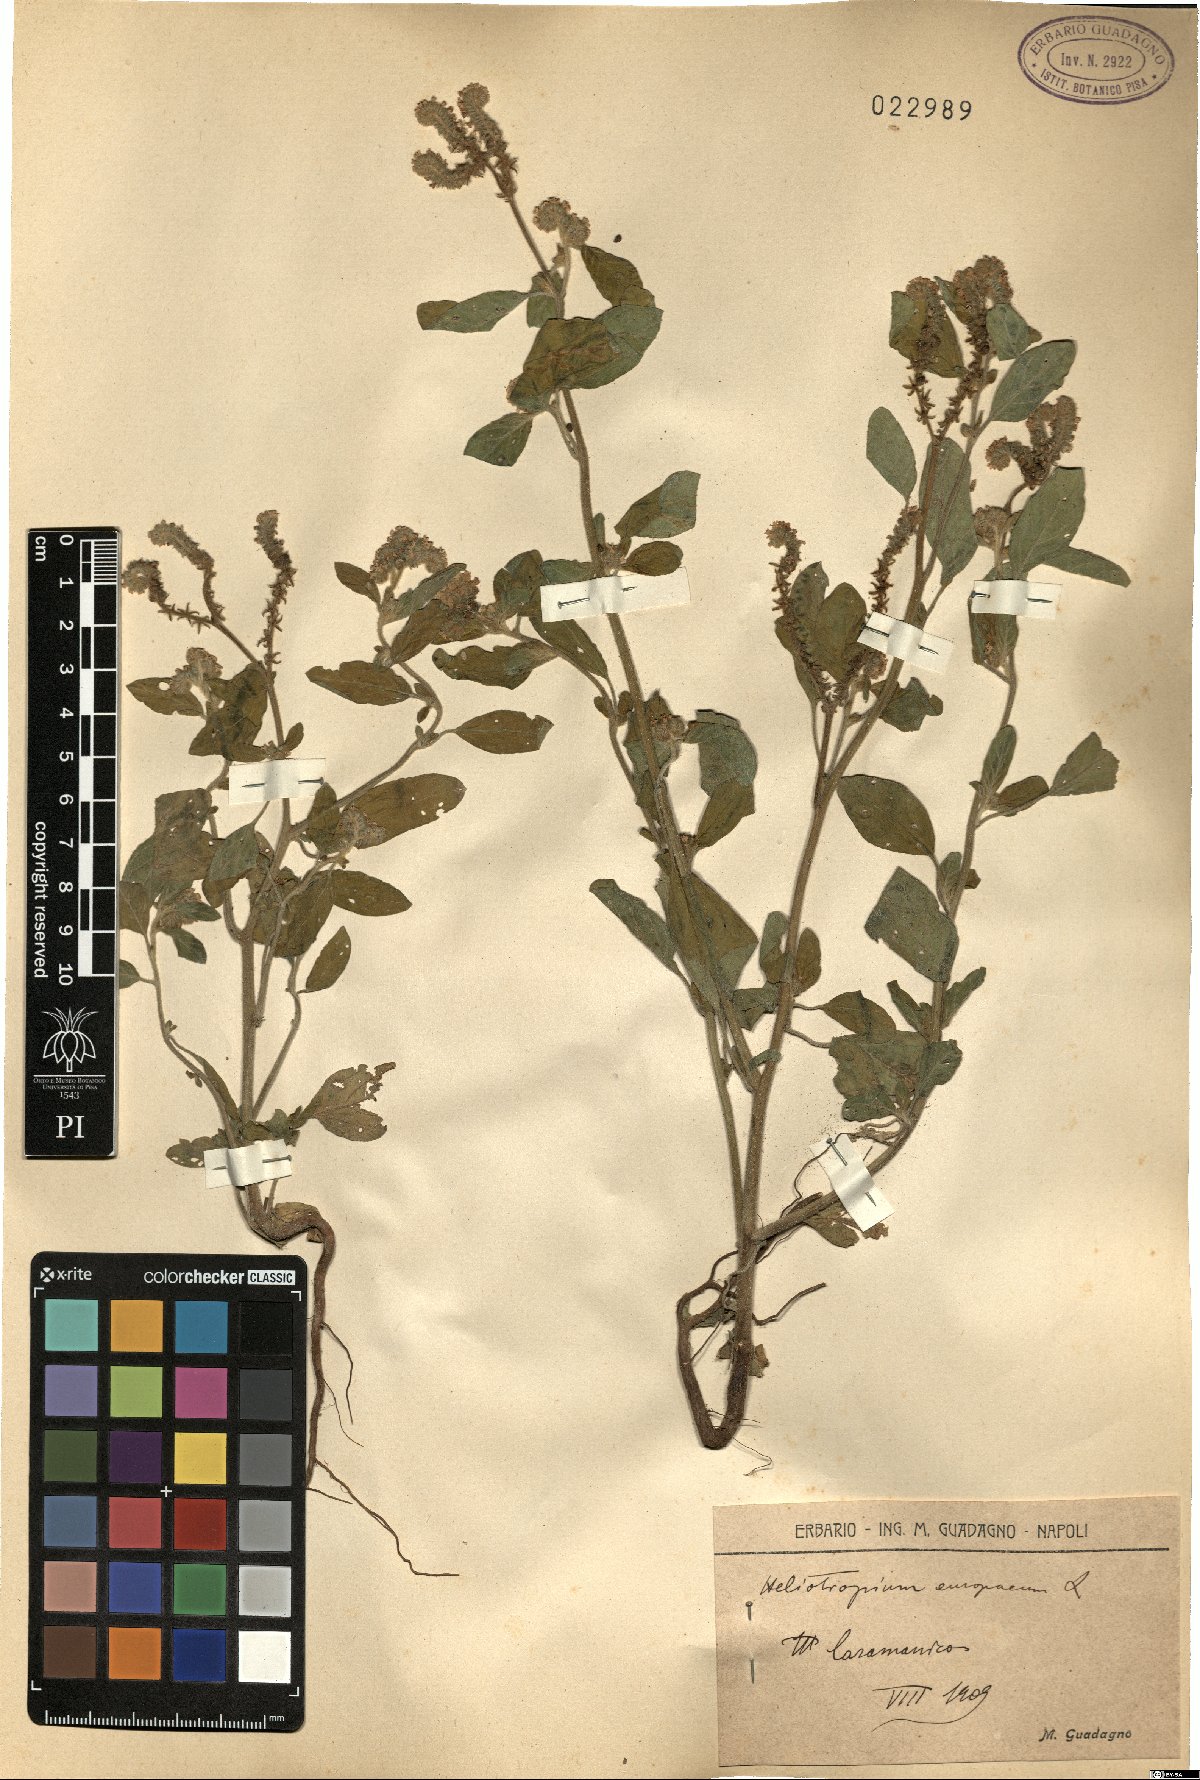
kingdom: Plantae
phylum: Tracheophyta
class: Magnoliopsida
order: Boraginales
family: Heliotropiaceae
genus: Heliotropium
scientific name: Heliotropium europaeum
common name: European heliotrope
